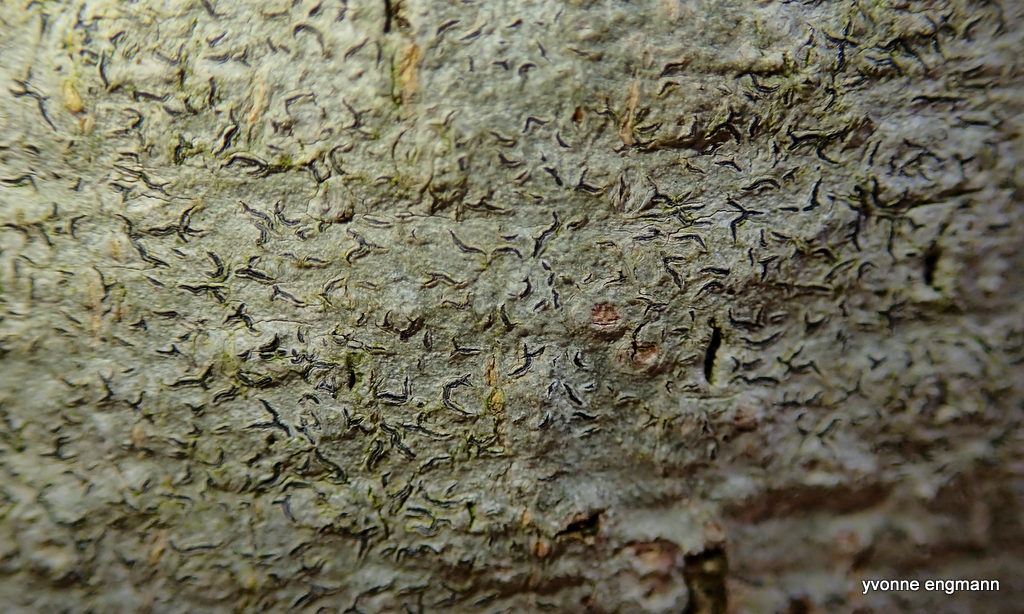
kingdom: Fungi
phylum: Ascomycota
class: Lecanoromycetes
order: Ostropales
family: Graphidaceae
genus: Graphis
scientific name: Graphis scripta
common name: almindelig skriftlav
